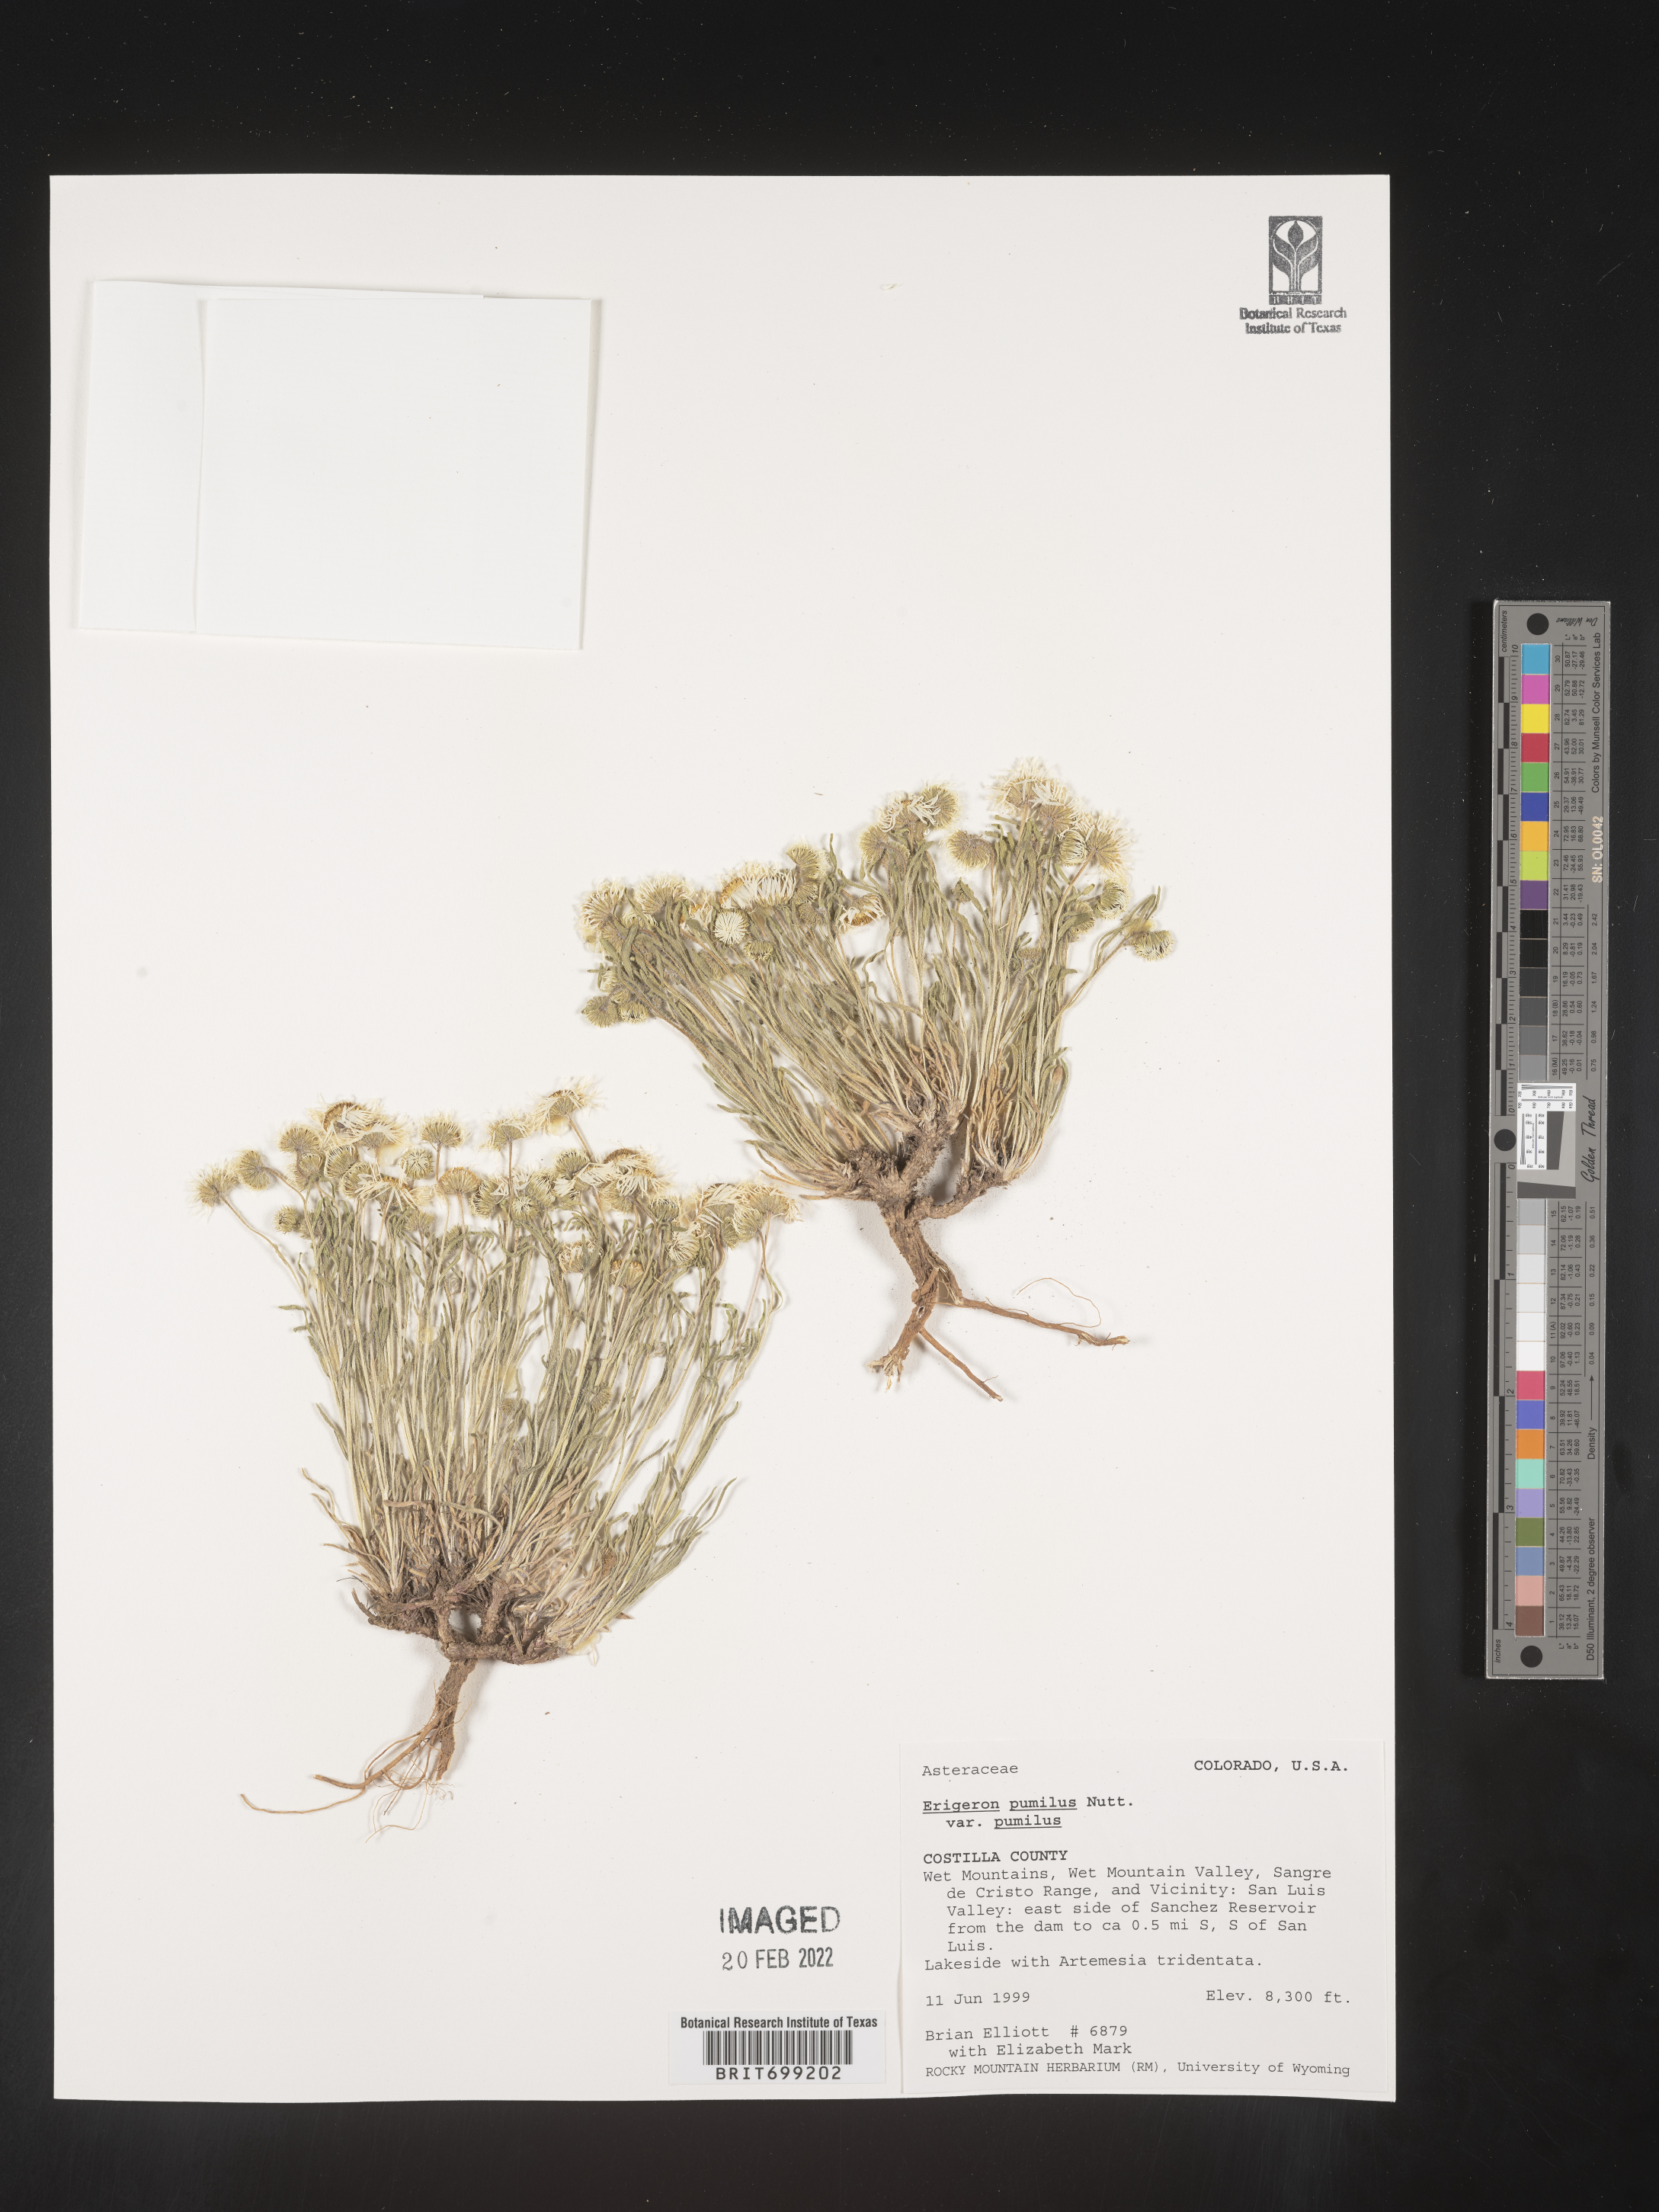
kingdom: Plantae
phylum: Tracheophyta
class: Magnoliopsida
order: Asterales
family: Asteraceae
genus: Erigeron
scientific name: Erigeron pumilus
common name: Shaggy fleabane
